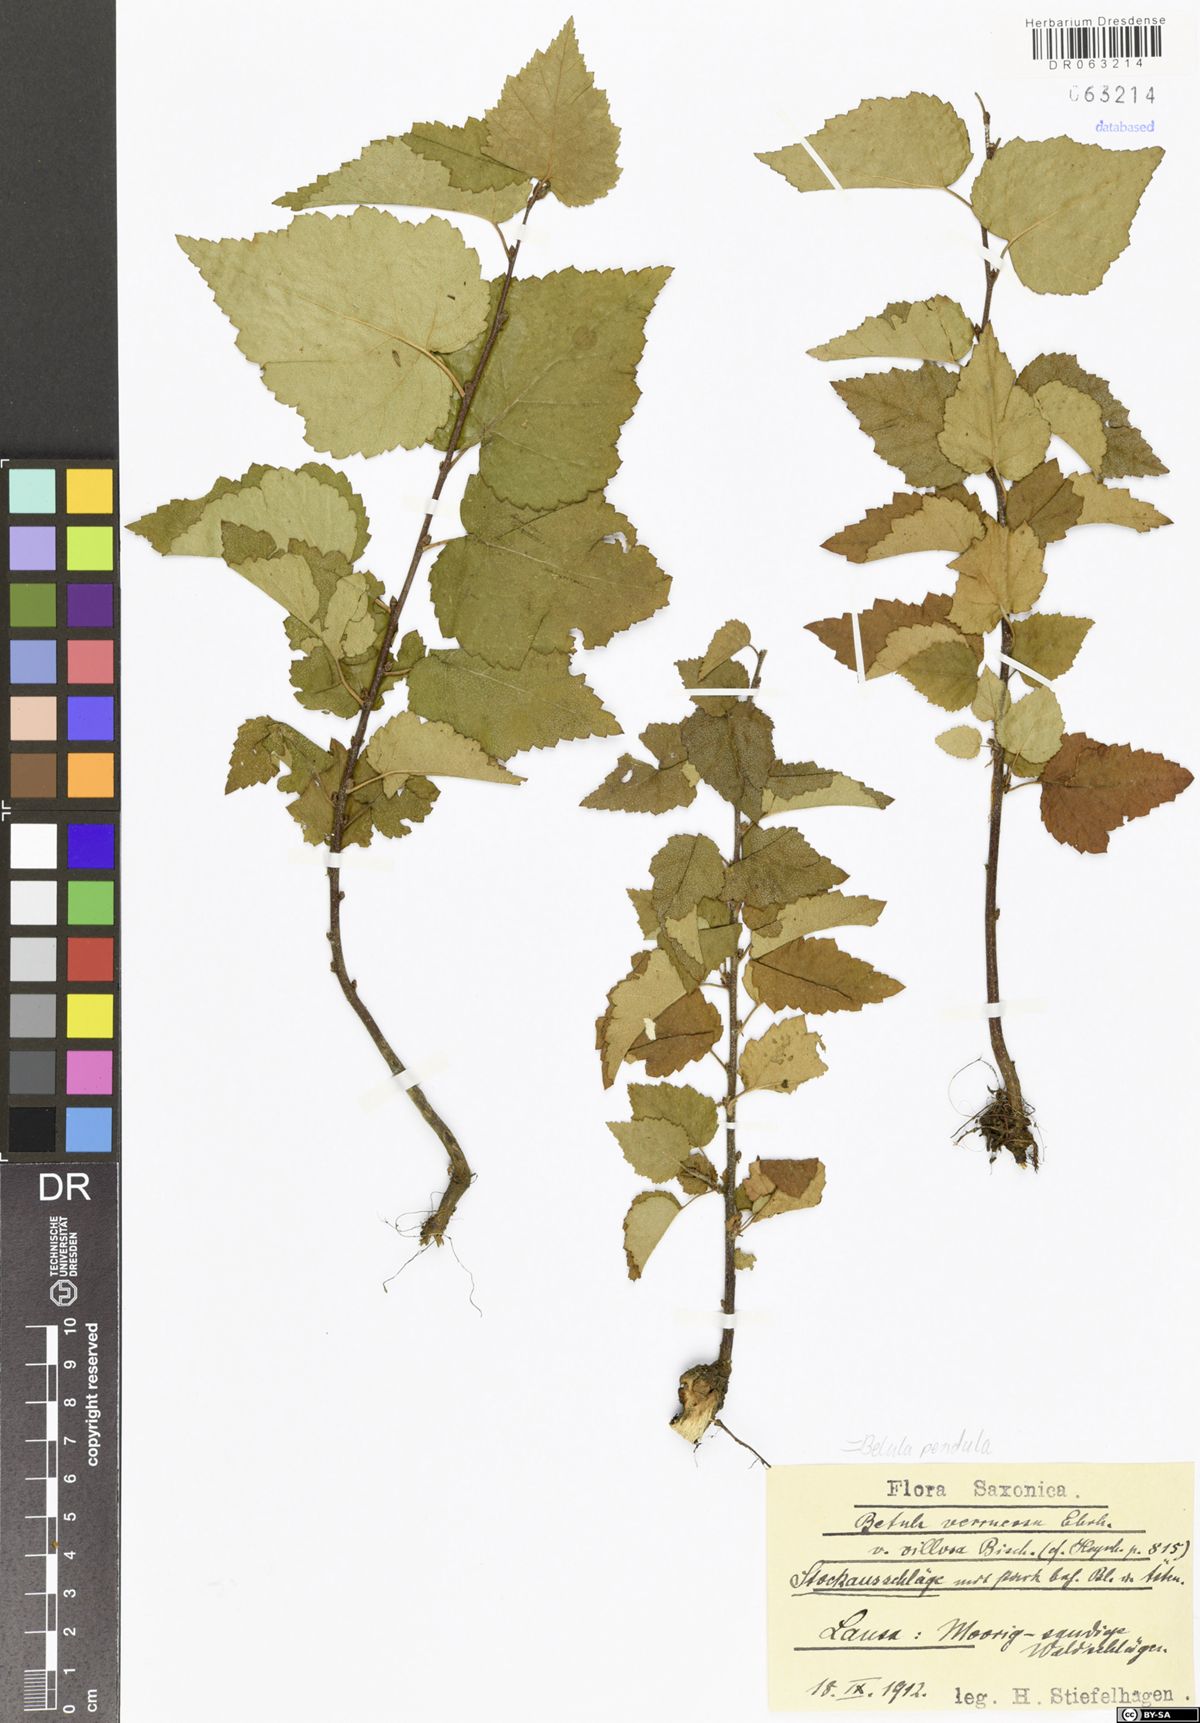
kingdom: Plantae
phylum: Tracheophyta
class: Magnoliopsida
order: Fagales
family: Betulaceae
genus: Betula
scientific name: Betula pendula
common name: Silver birch
